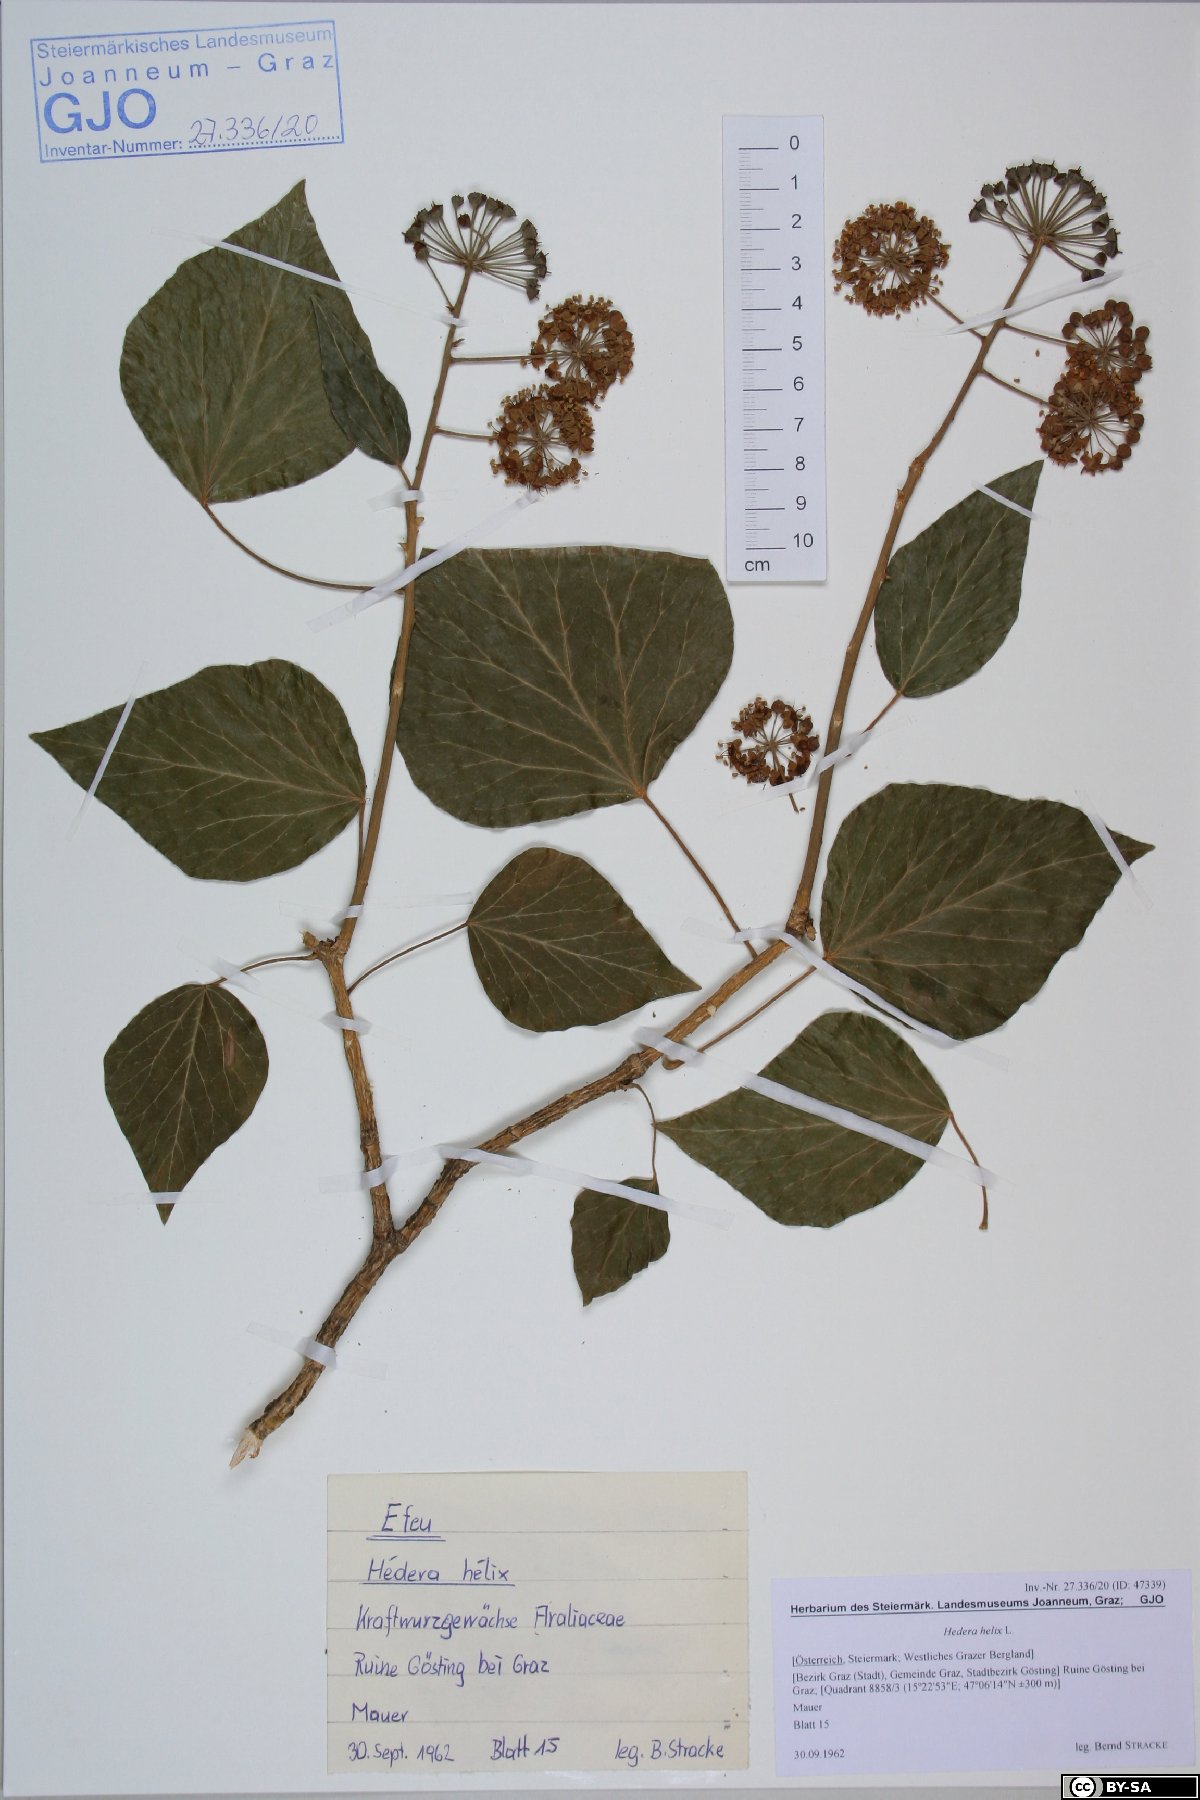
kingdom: Plantae
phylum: Tracheophyta
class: Magnoliopsida
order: Apiales
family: Araliaceae
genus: Hedera
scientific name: Hedera helix
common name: Ivy
